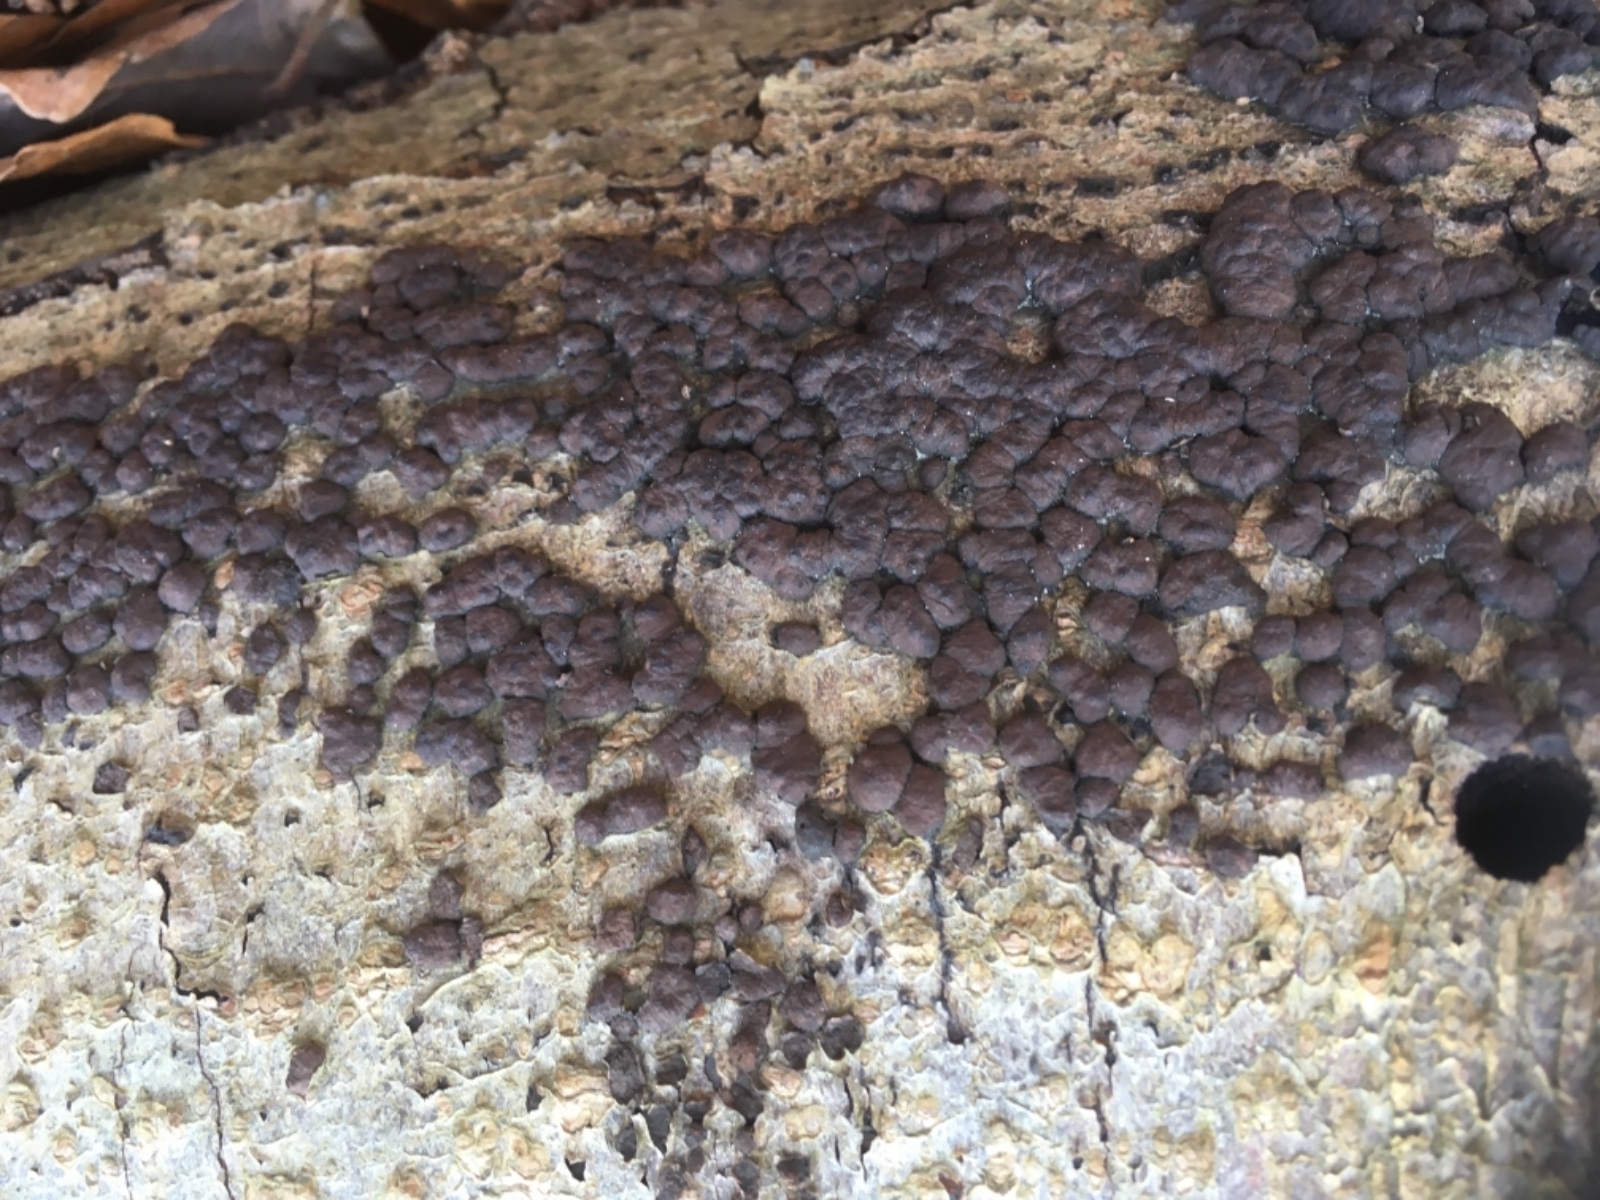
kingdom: Fungi
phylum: Ascomycota
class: Sordariomycetes
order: Xylariales
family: Hypoxylaceae
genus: Jackrogersella
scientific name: Jackrogersella cohaerens
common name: sammenflydende kulbær
